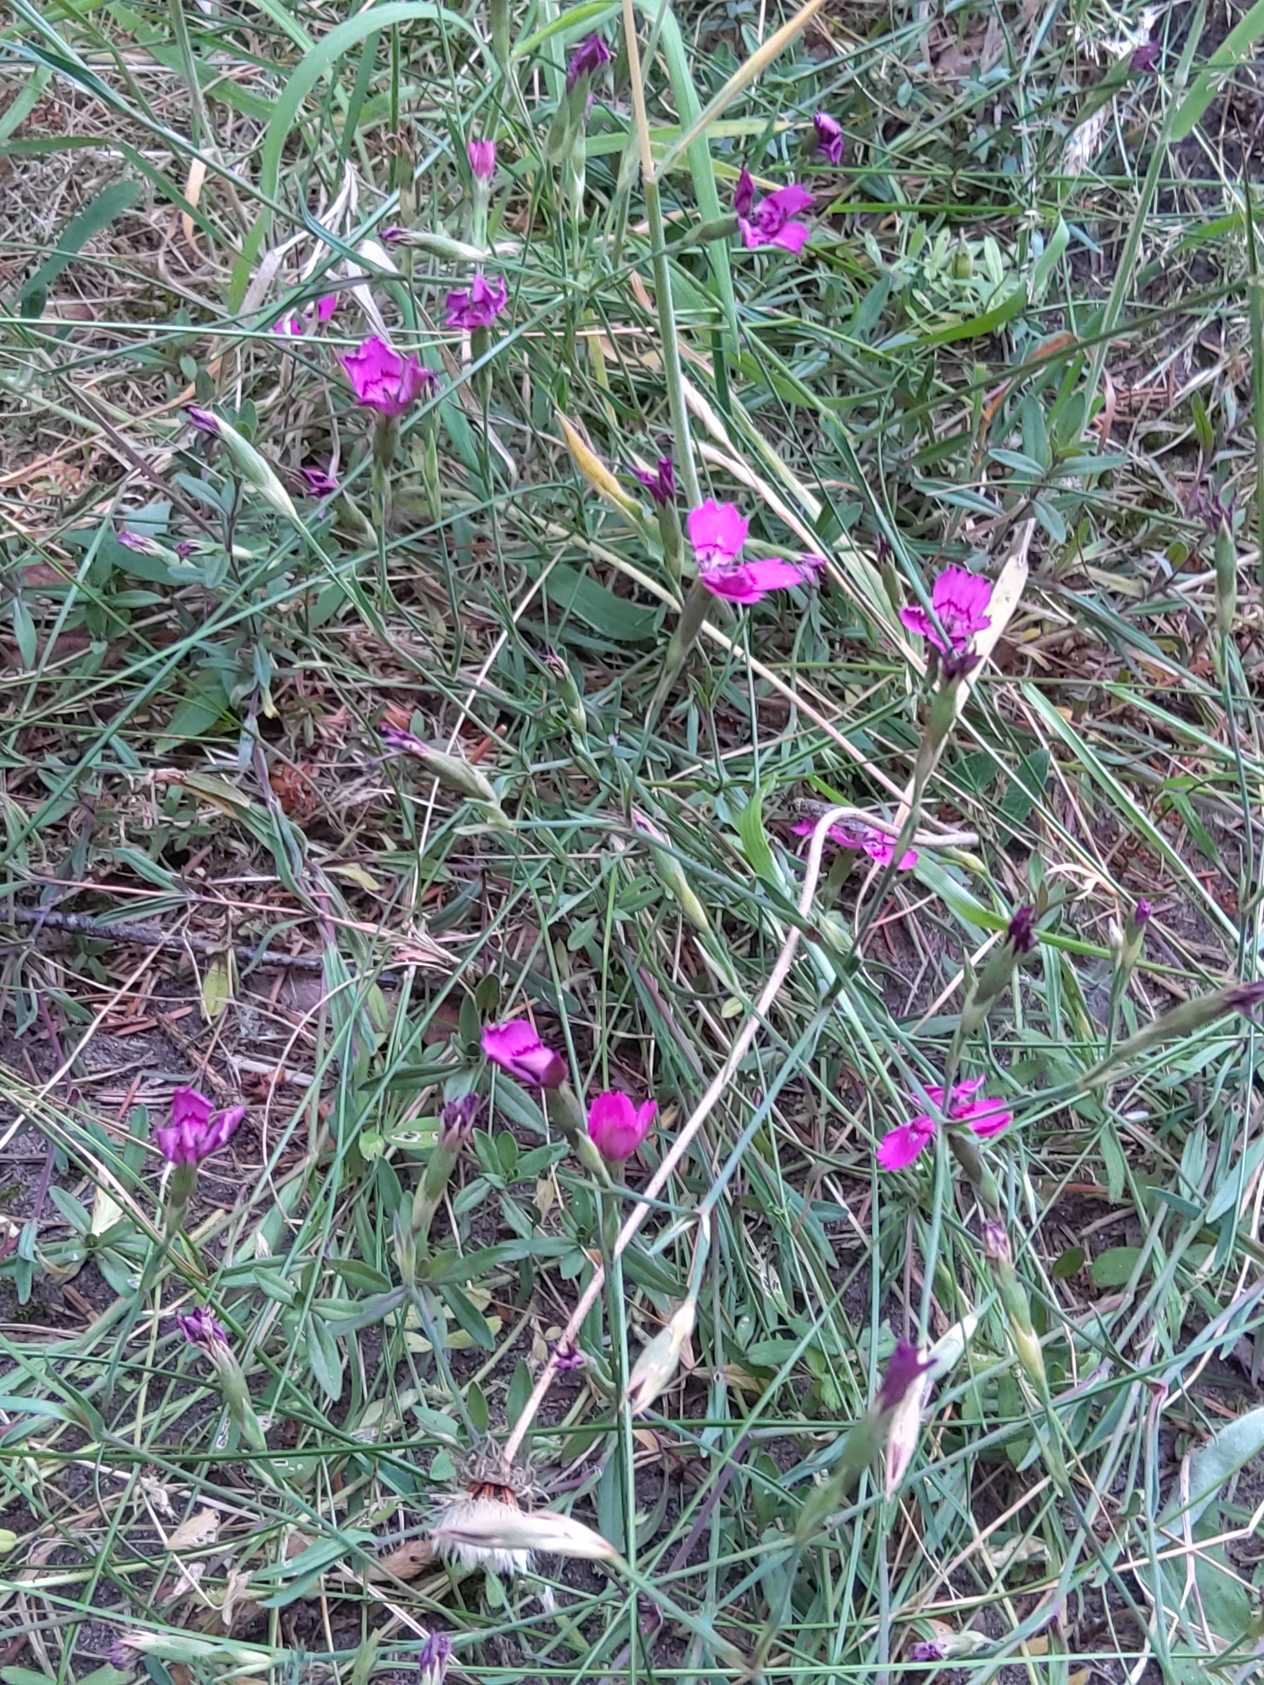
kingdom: Plantae
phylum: Tracheophyta
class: Magnoliopsida
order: Caryophyllales
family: Caryophyllaceae
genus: Dianthus
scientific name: Dianthus deltoides
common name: Bakke-nellike
